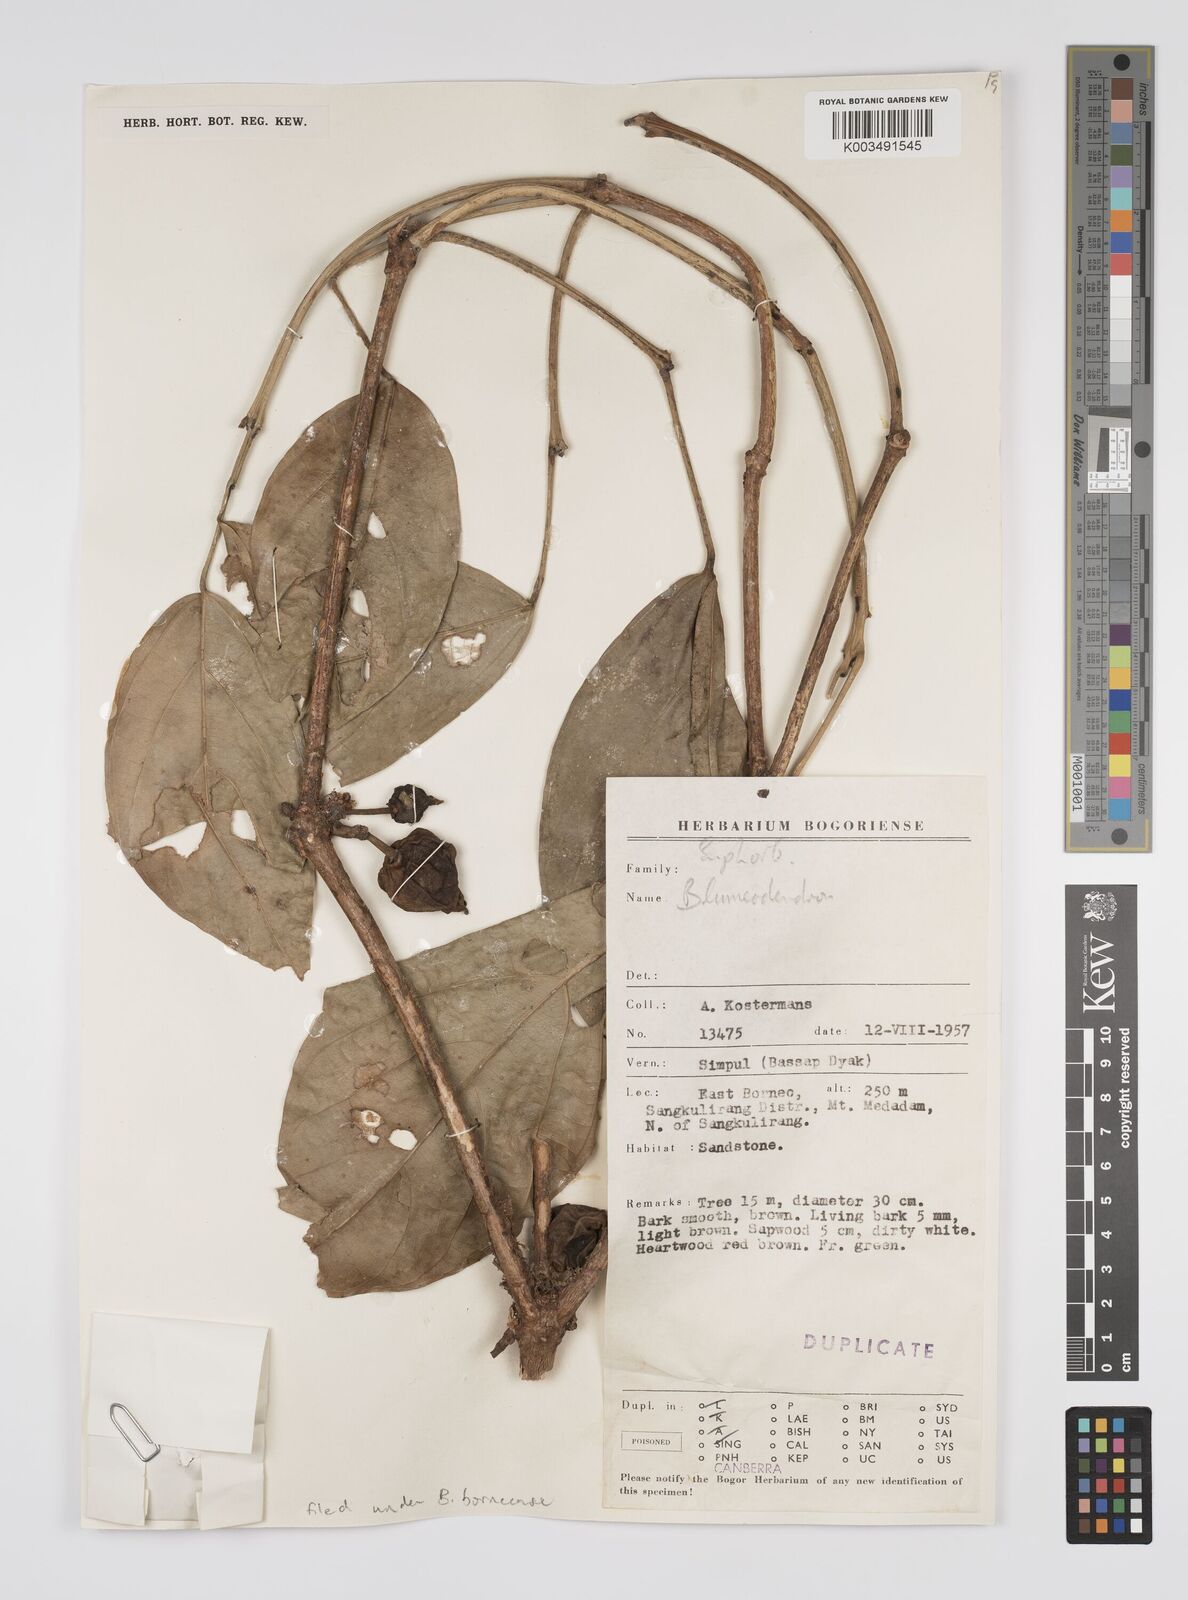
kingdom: Plantae
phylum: Tracheophyta
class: Magnoliopsida
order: Malpighiales
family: Euphorbiaceae
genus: Blumeodendron
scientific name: Blumeodendron
